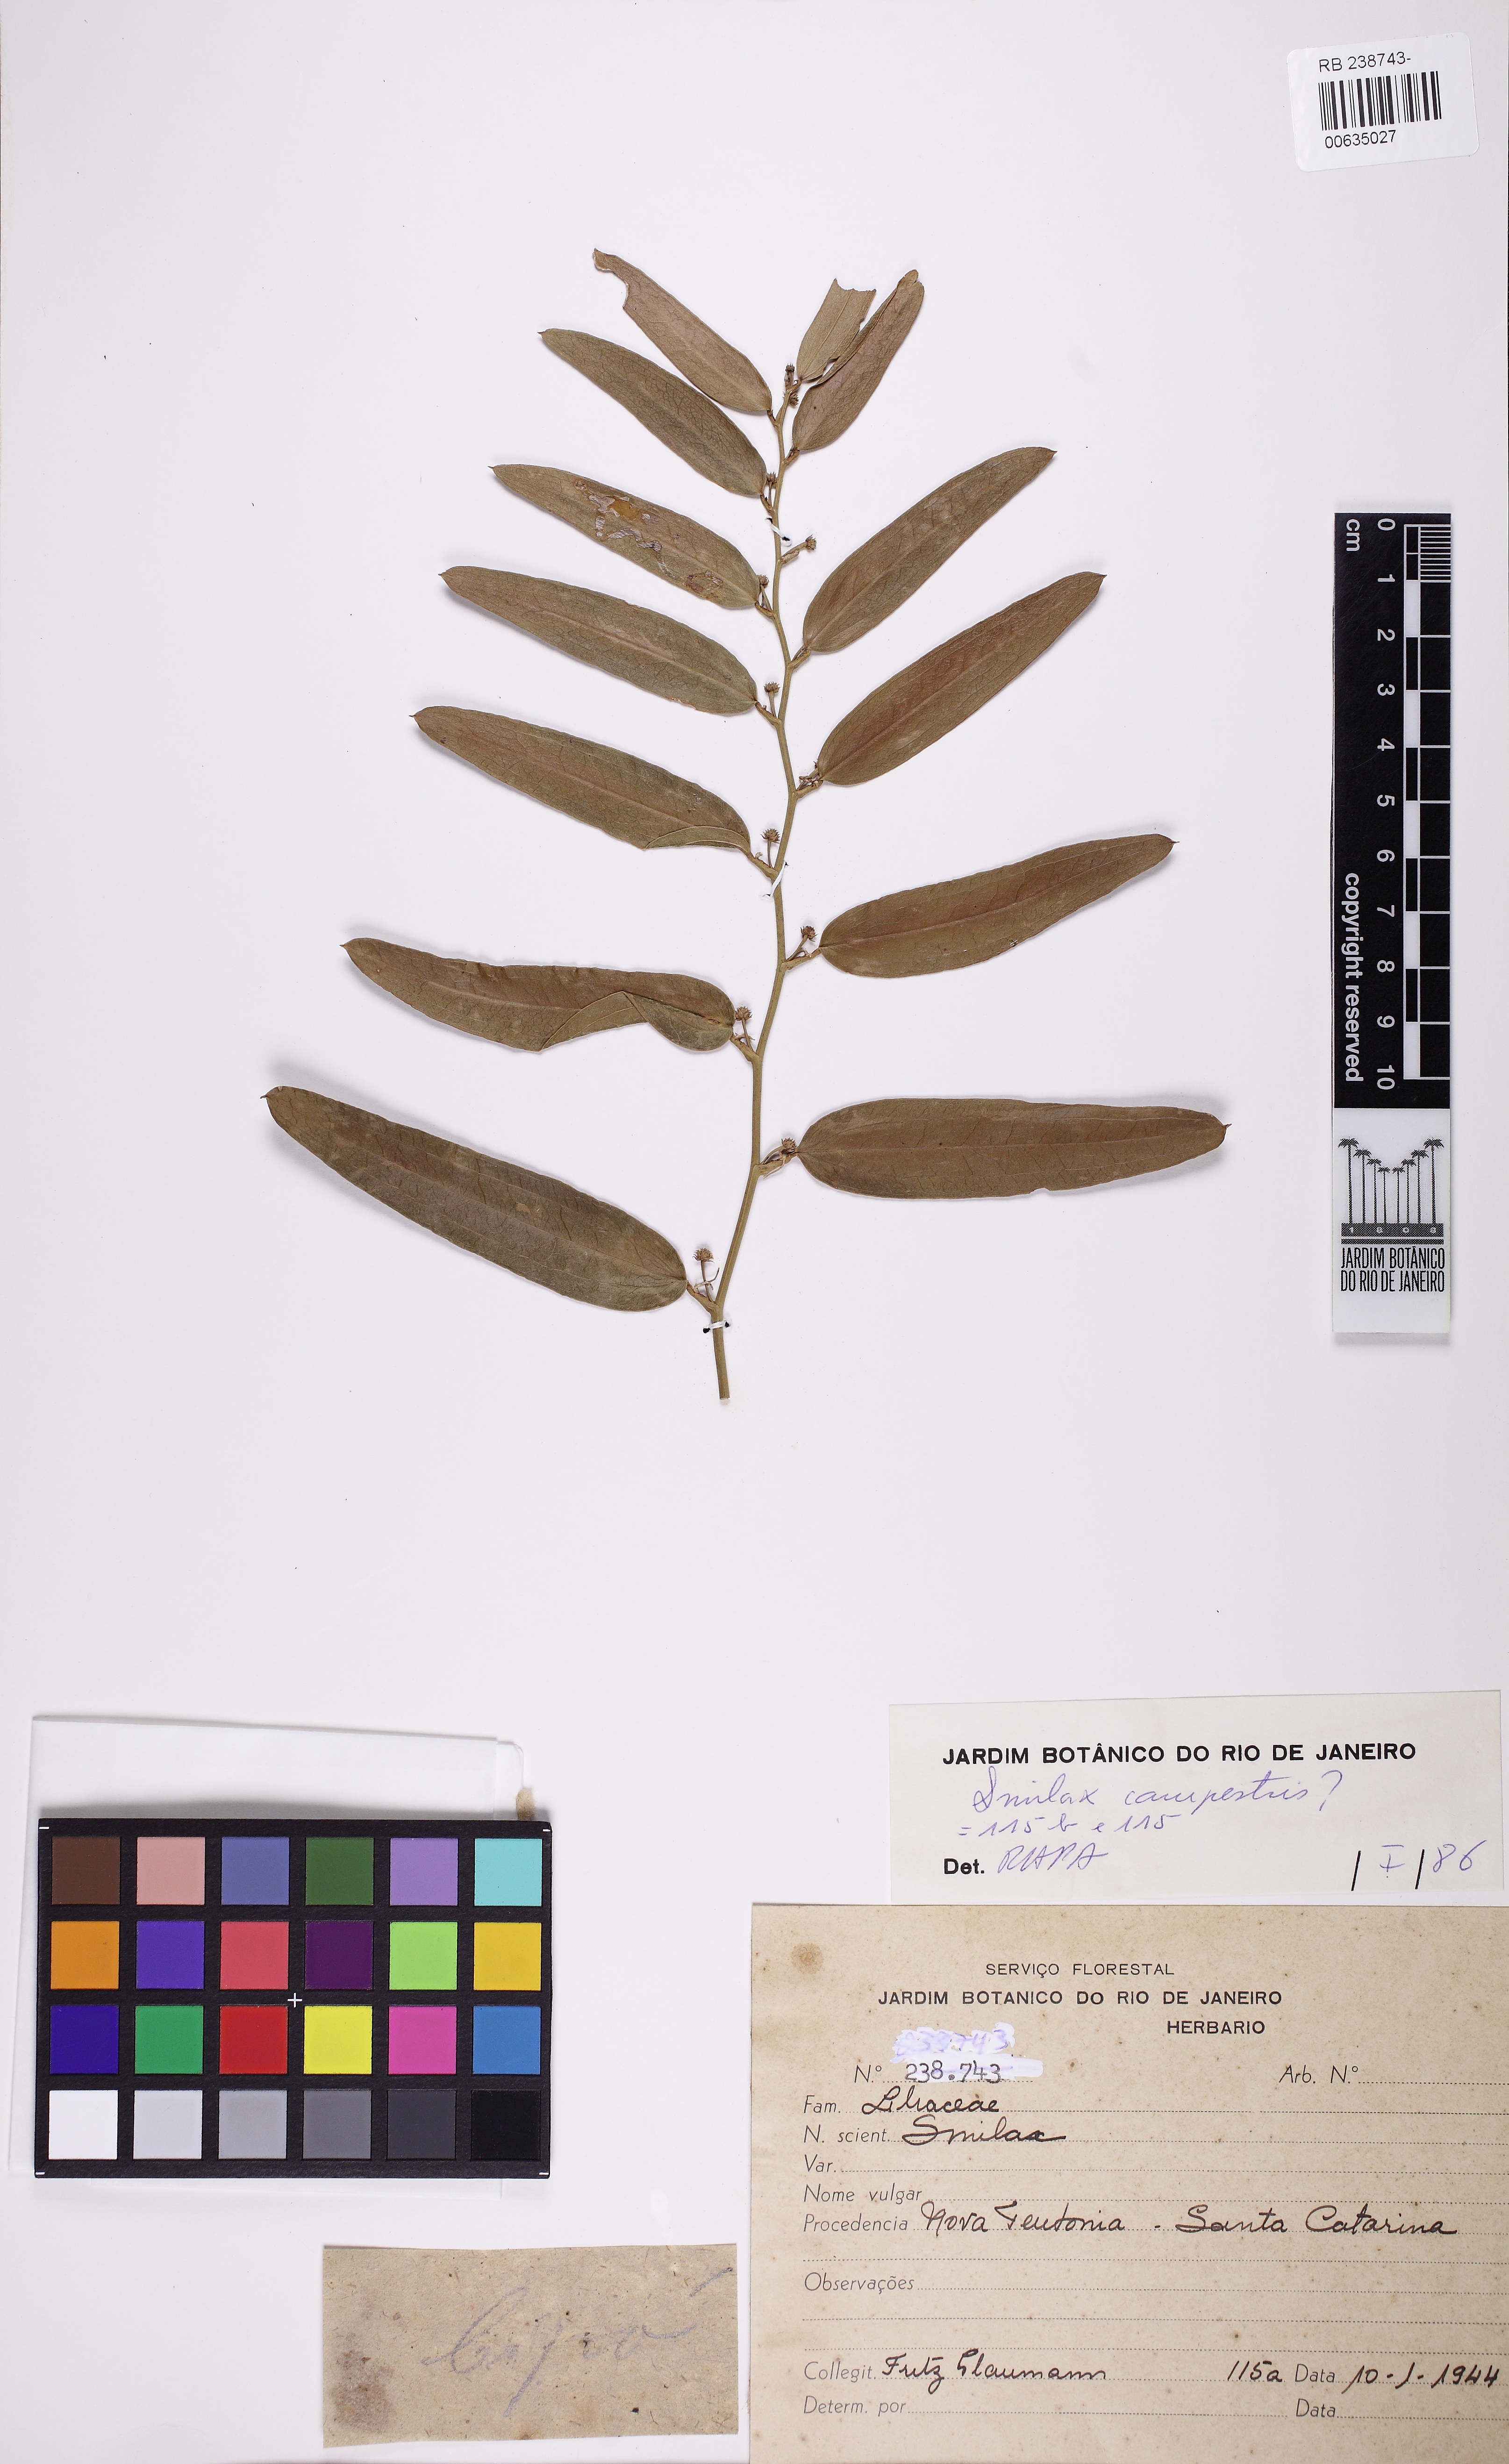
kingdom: Plantae
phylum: Tracheophyta
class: Liliopsida
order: Liliales
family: Smilacaceae
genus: Smilax
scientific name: Smilax campestris
